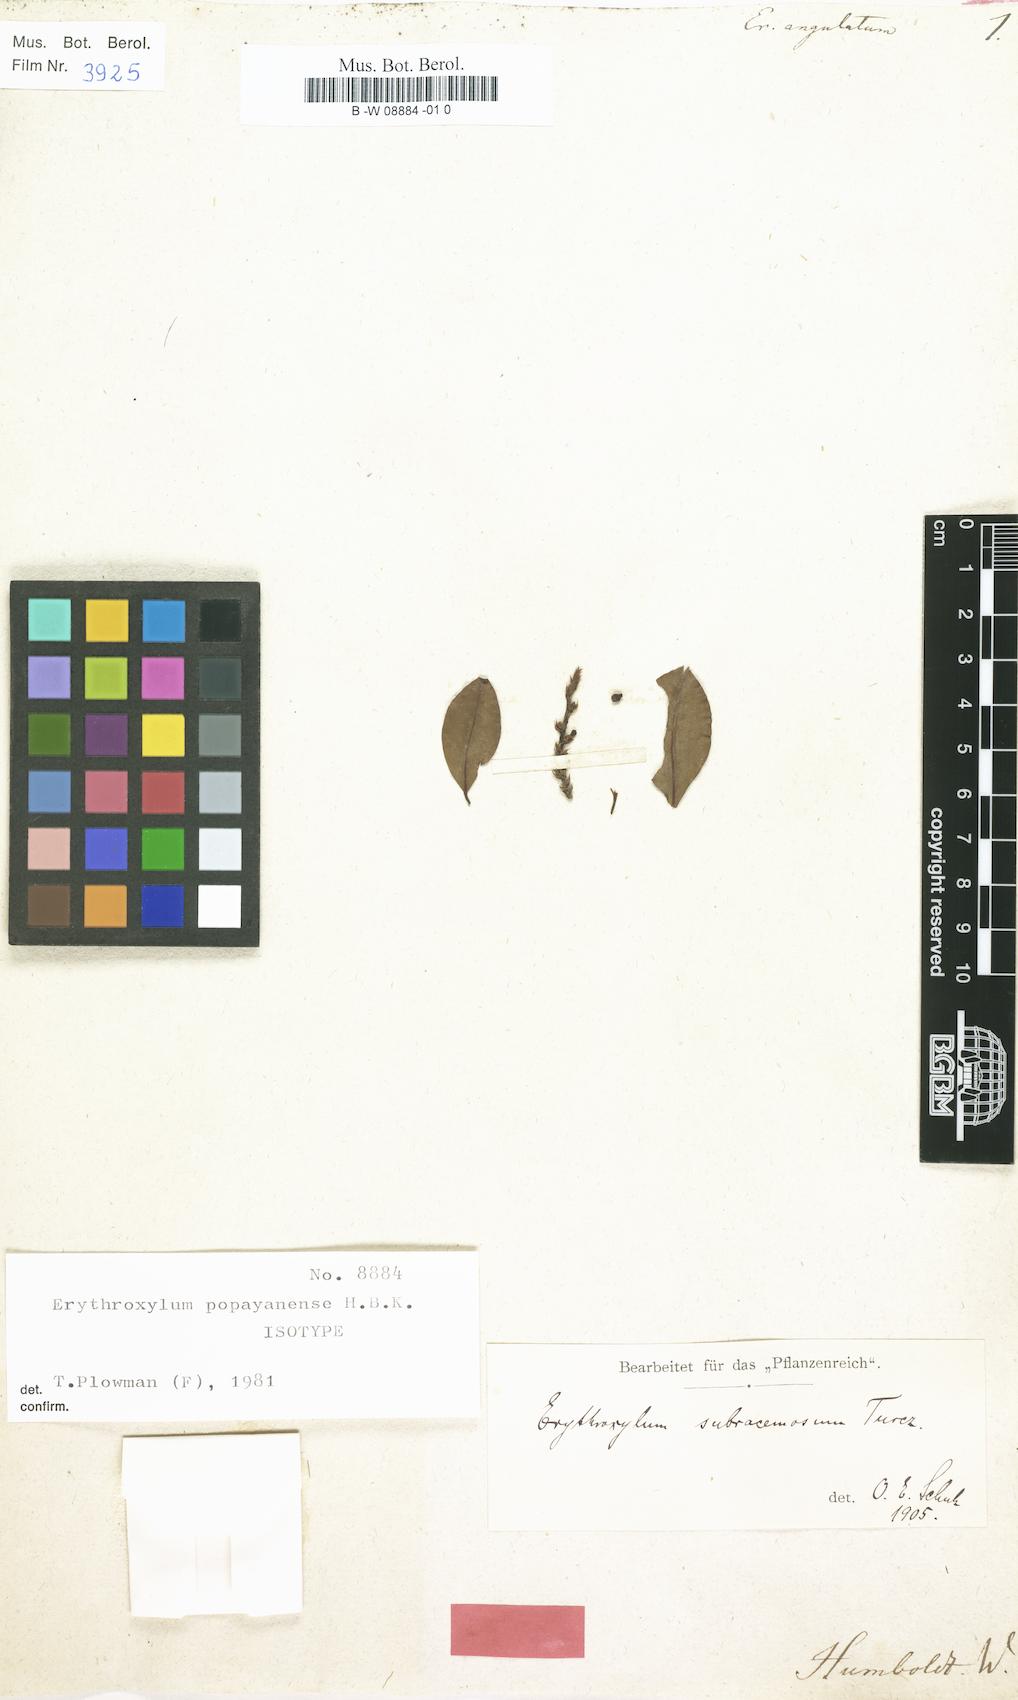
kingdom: Plantae
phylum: Tracheophyta
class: Magnoliopsida
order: Malpighiales
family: Erythroxylaceae
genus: Erythroxylum
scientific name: Erythroxylum
